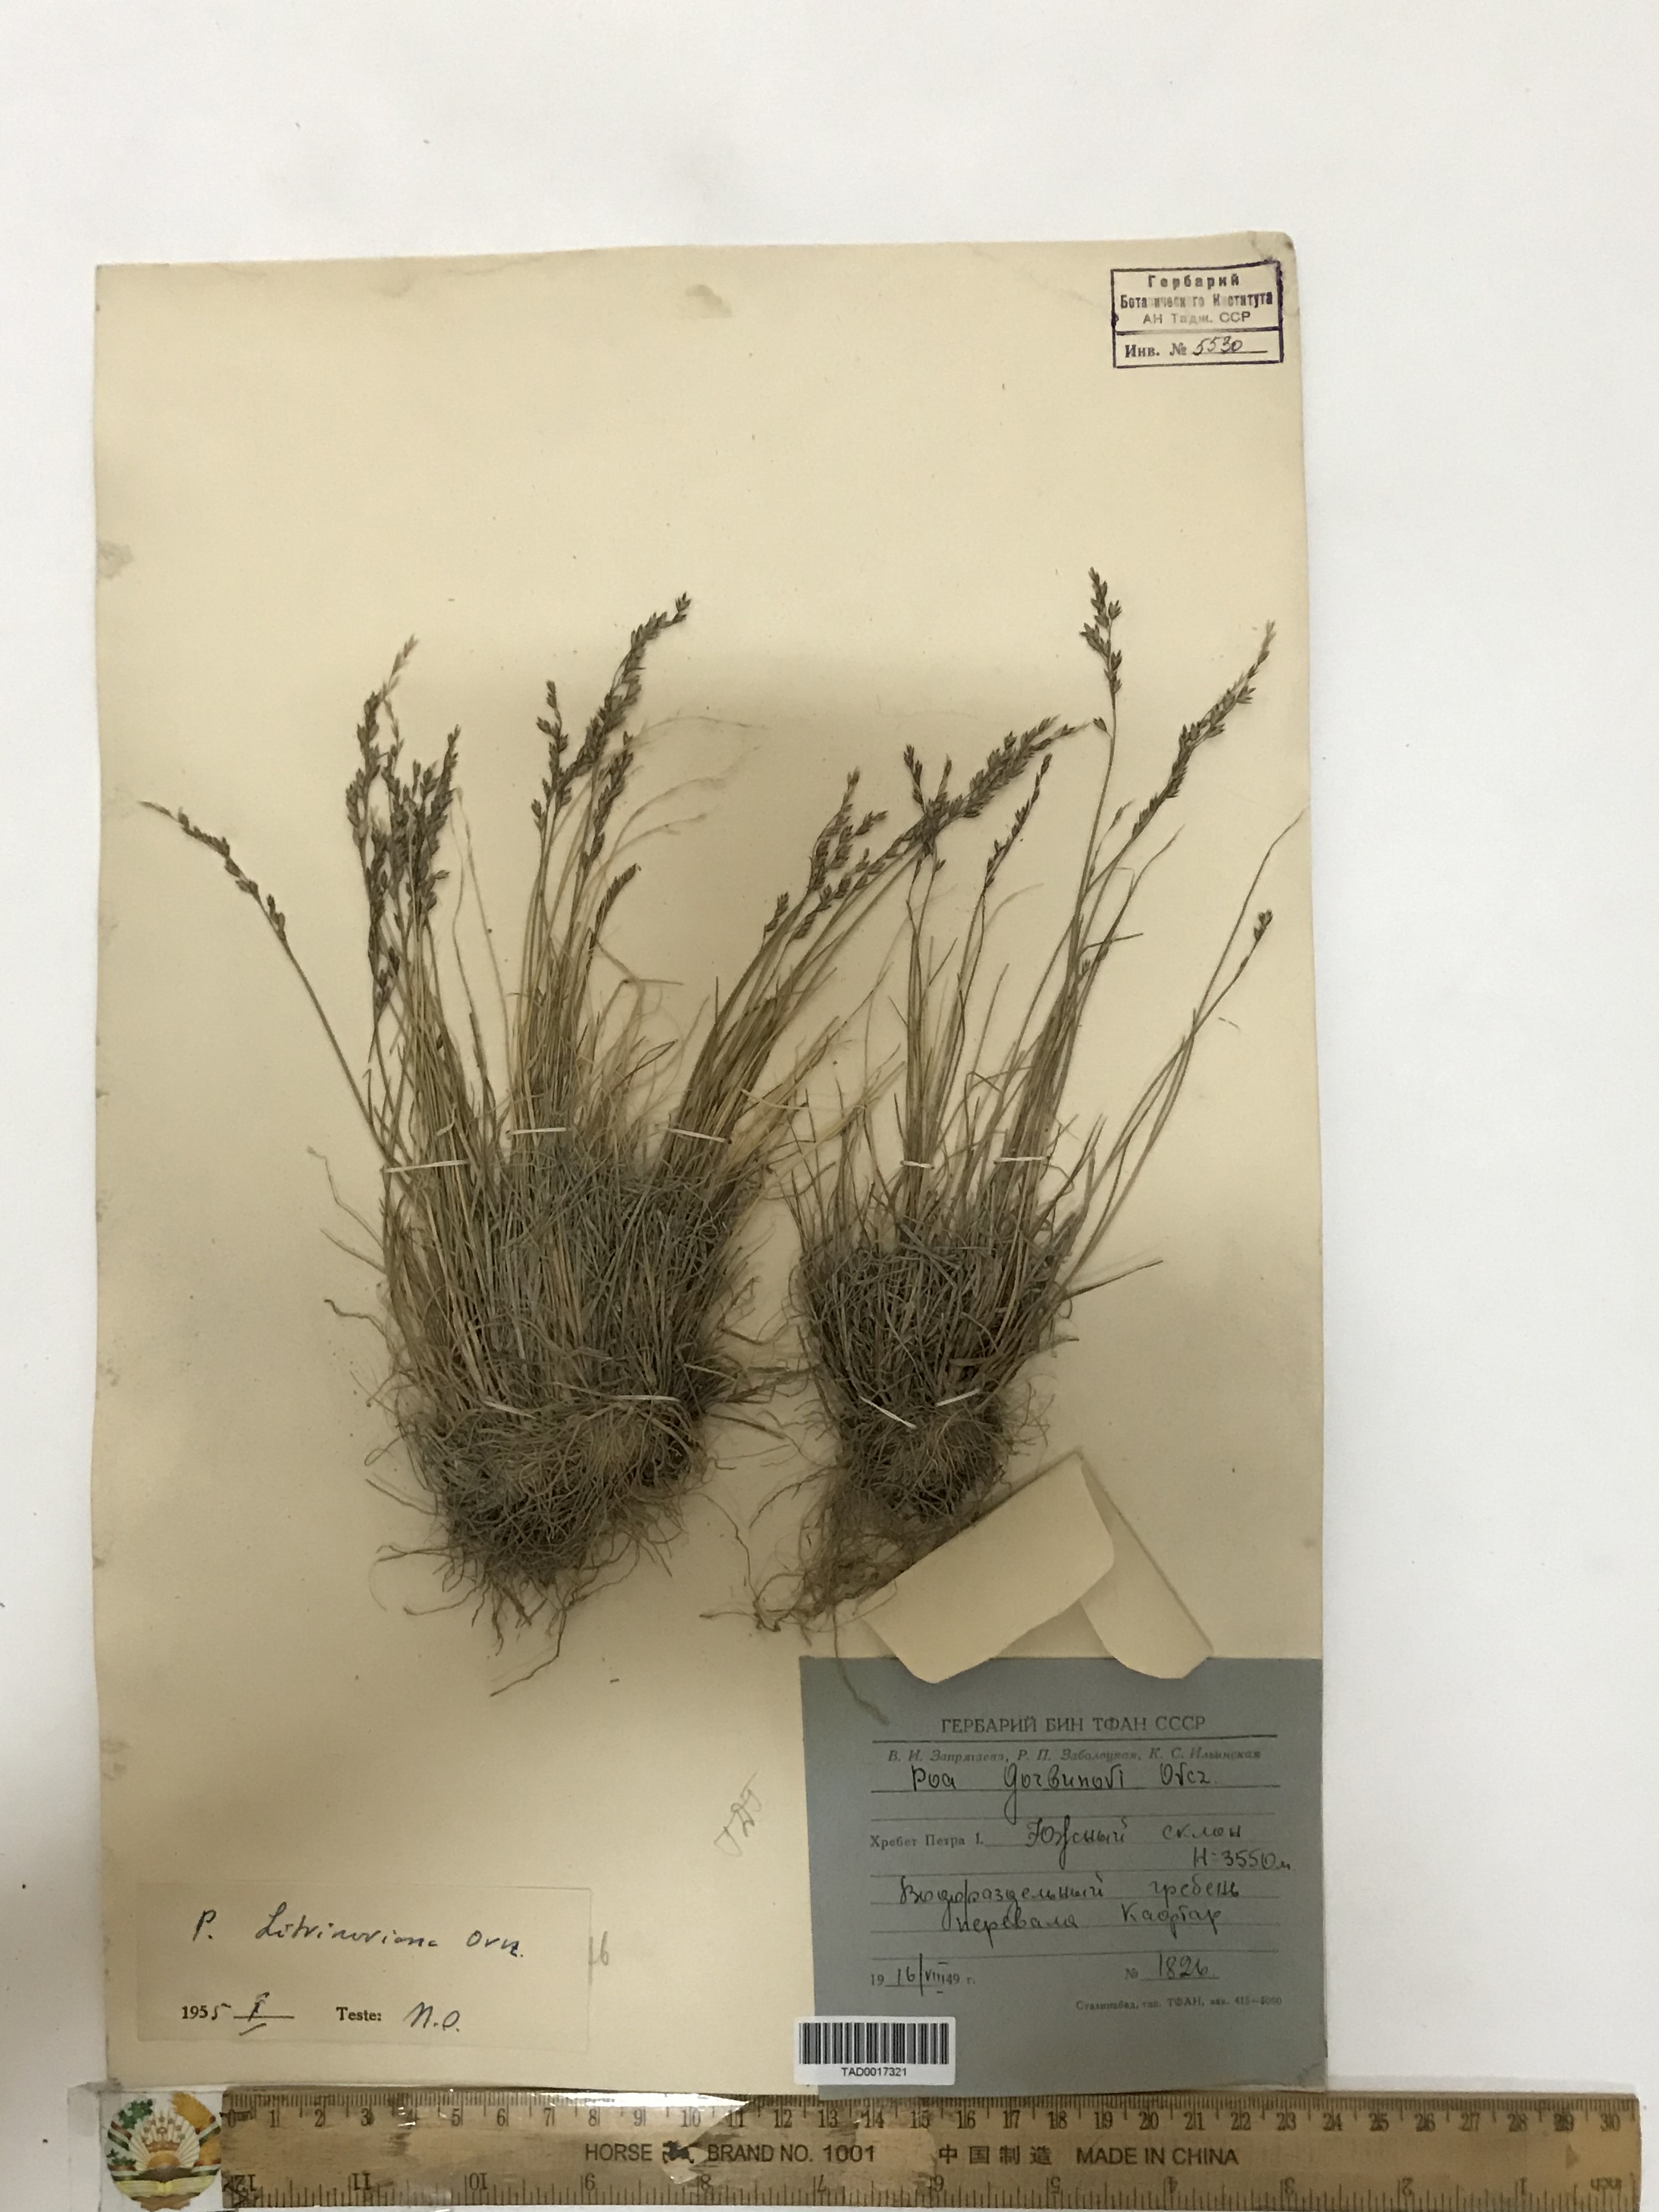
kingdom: Plantae
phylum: Tracheophyta
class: Liliopsida
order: Poales
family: Poaceae
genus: Poa
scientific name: Poa glauca
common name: Glaucous bluegrass
